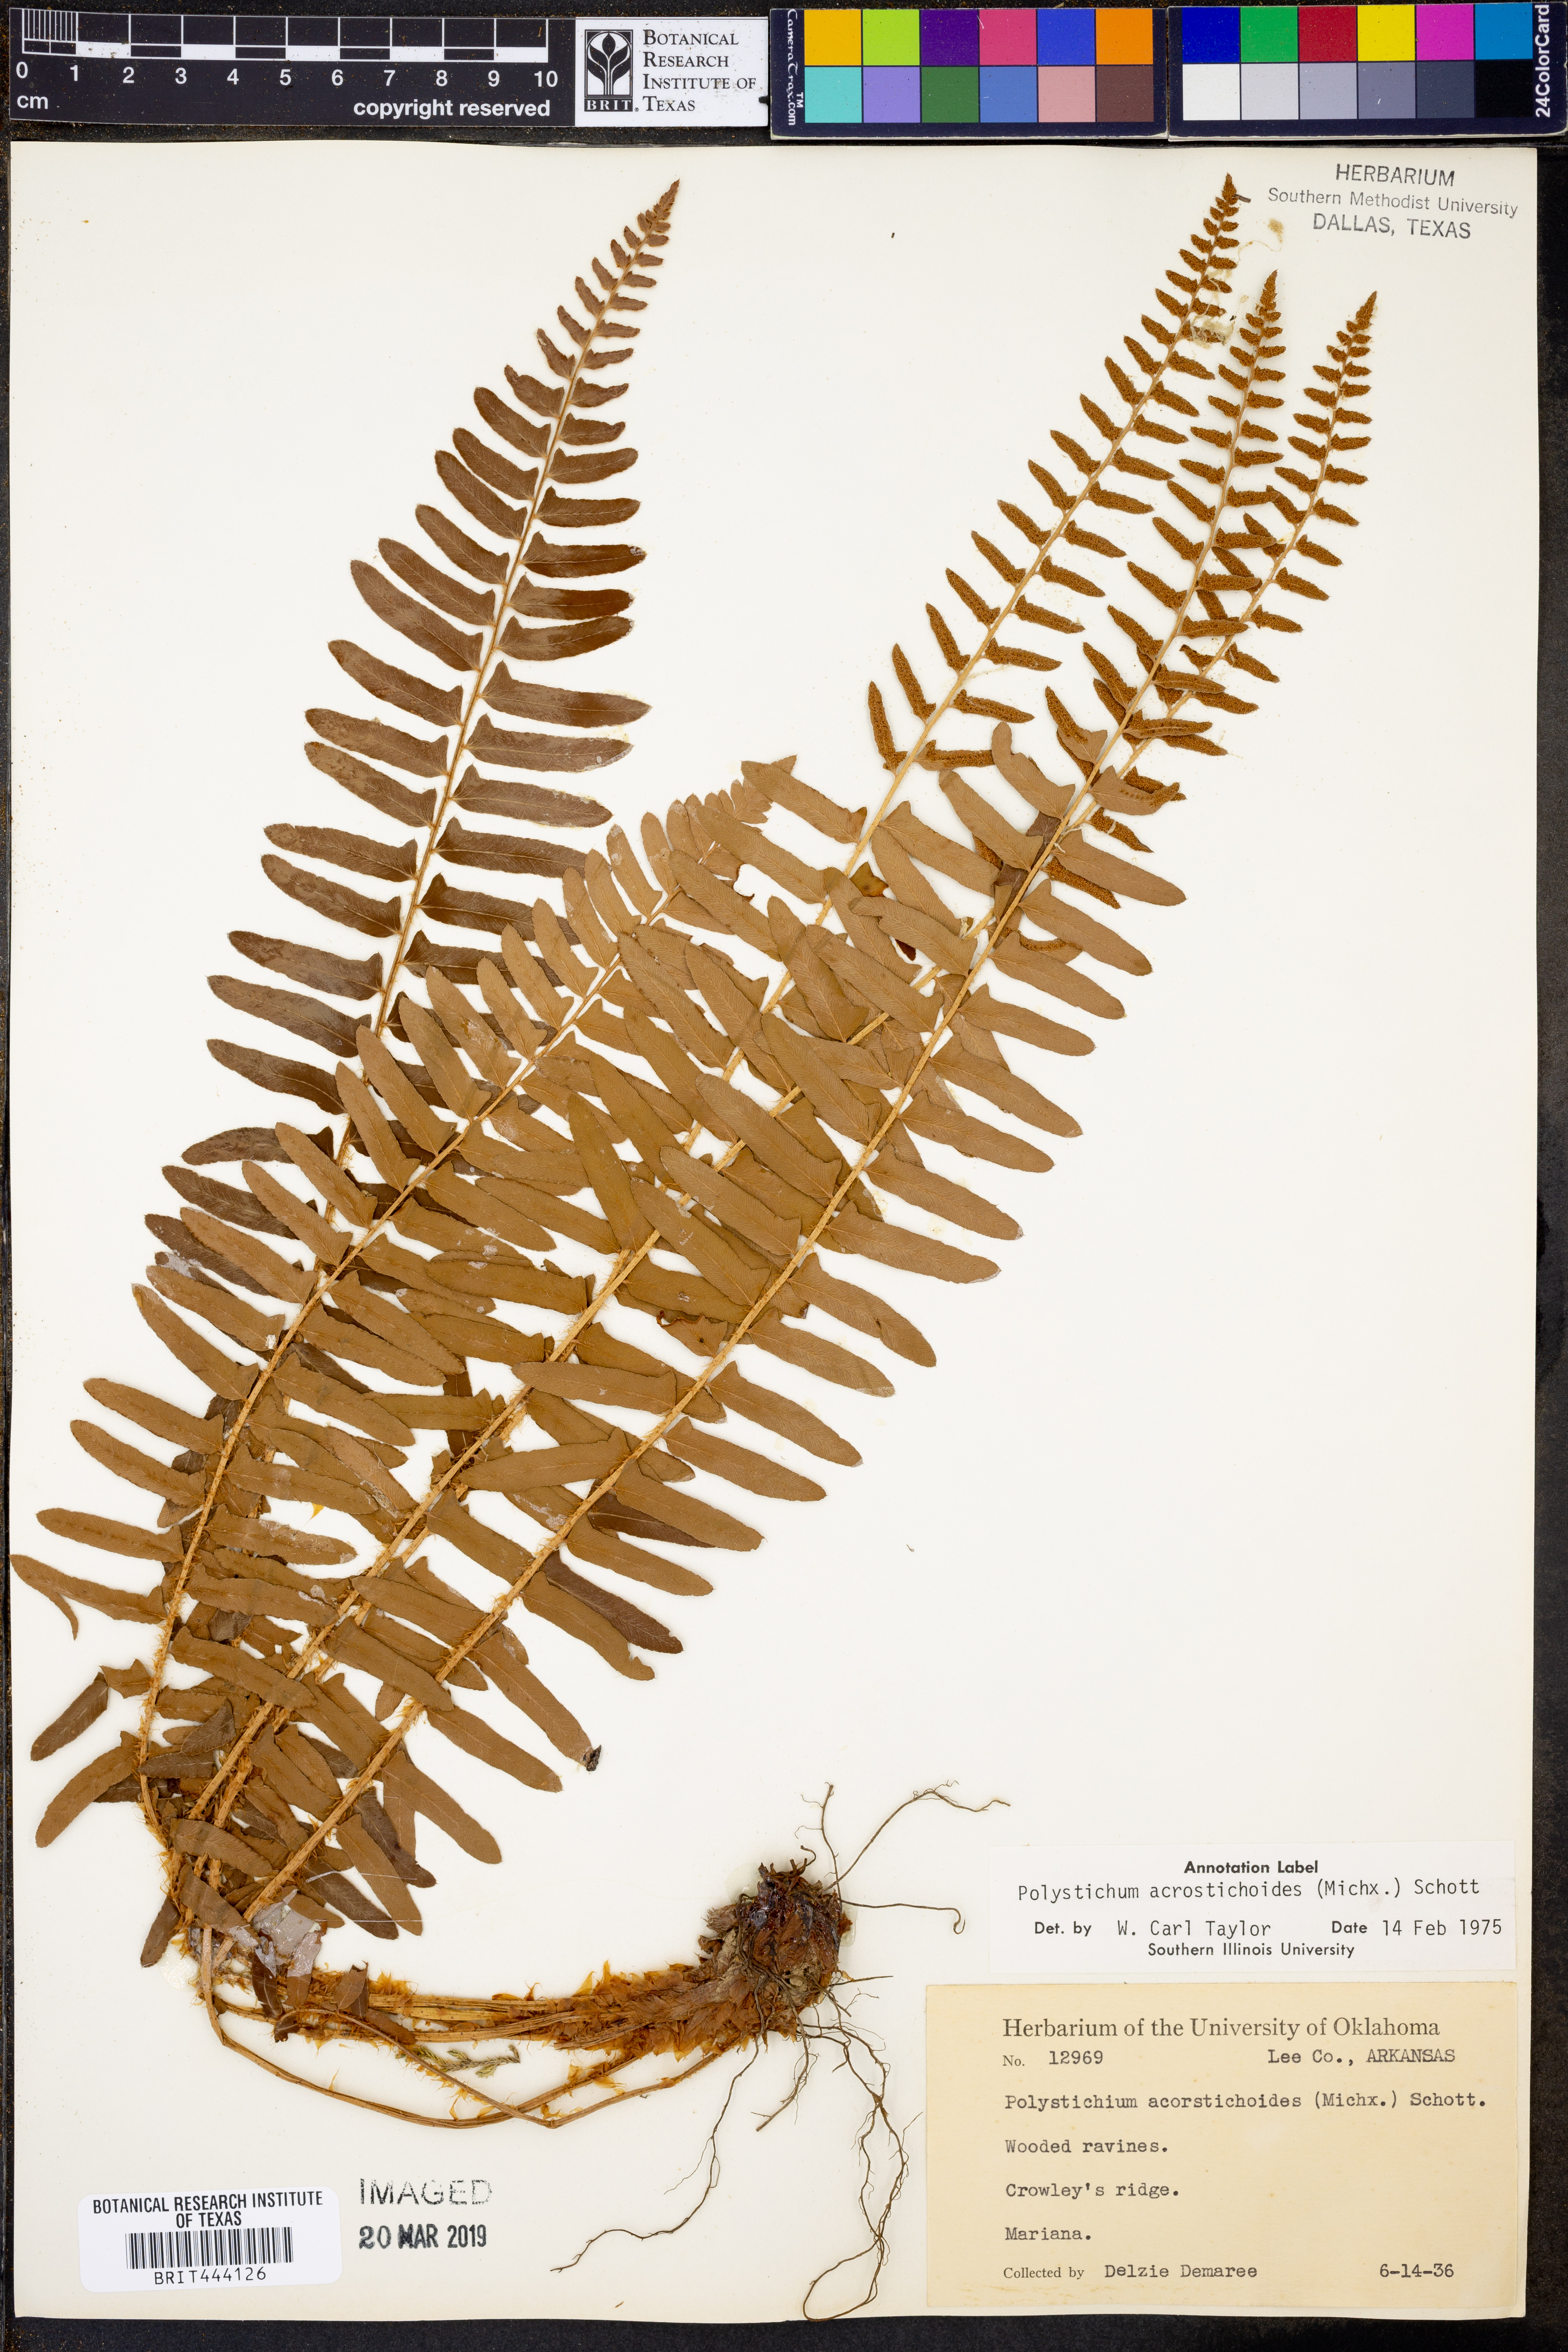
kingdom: Plantae
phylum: Tracheophyta
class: Polypodiopsida
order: Polypodiales
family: Dryopteridaceae
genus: Polystichum
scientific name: Polystichum acrostichoides
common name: Christmas fern
